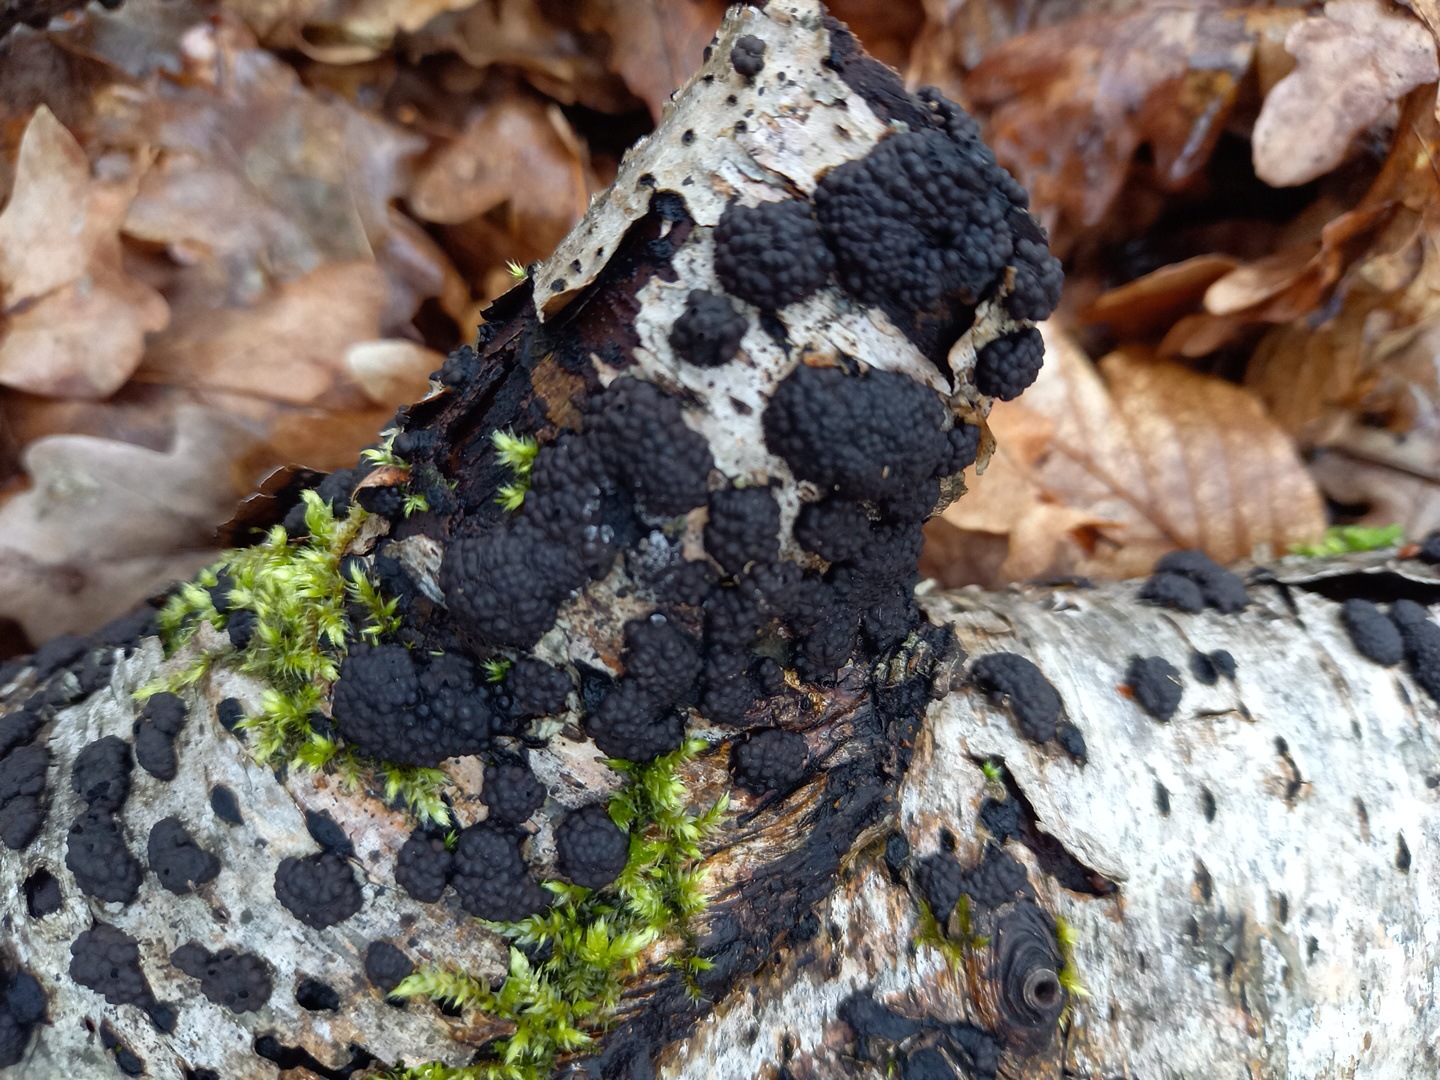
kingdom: Fungi
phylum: Ascomycota
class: Sordariomycetes
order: Xylariales
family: Hypoxylaceae
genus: Jackrogersella
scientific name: Jackrogersella multiformis
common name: foranderlig kulbær
